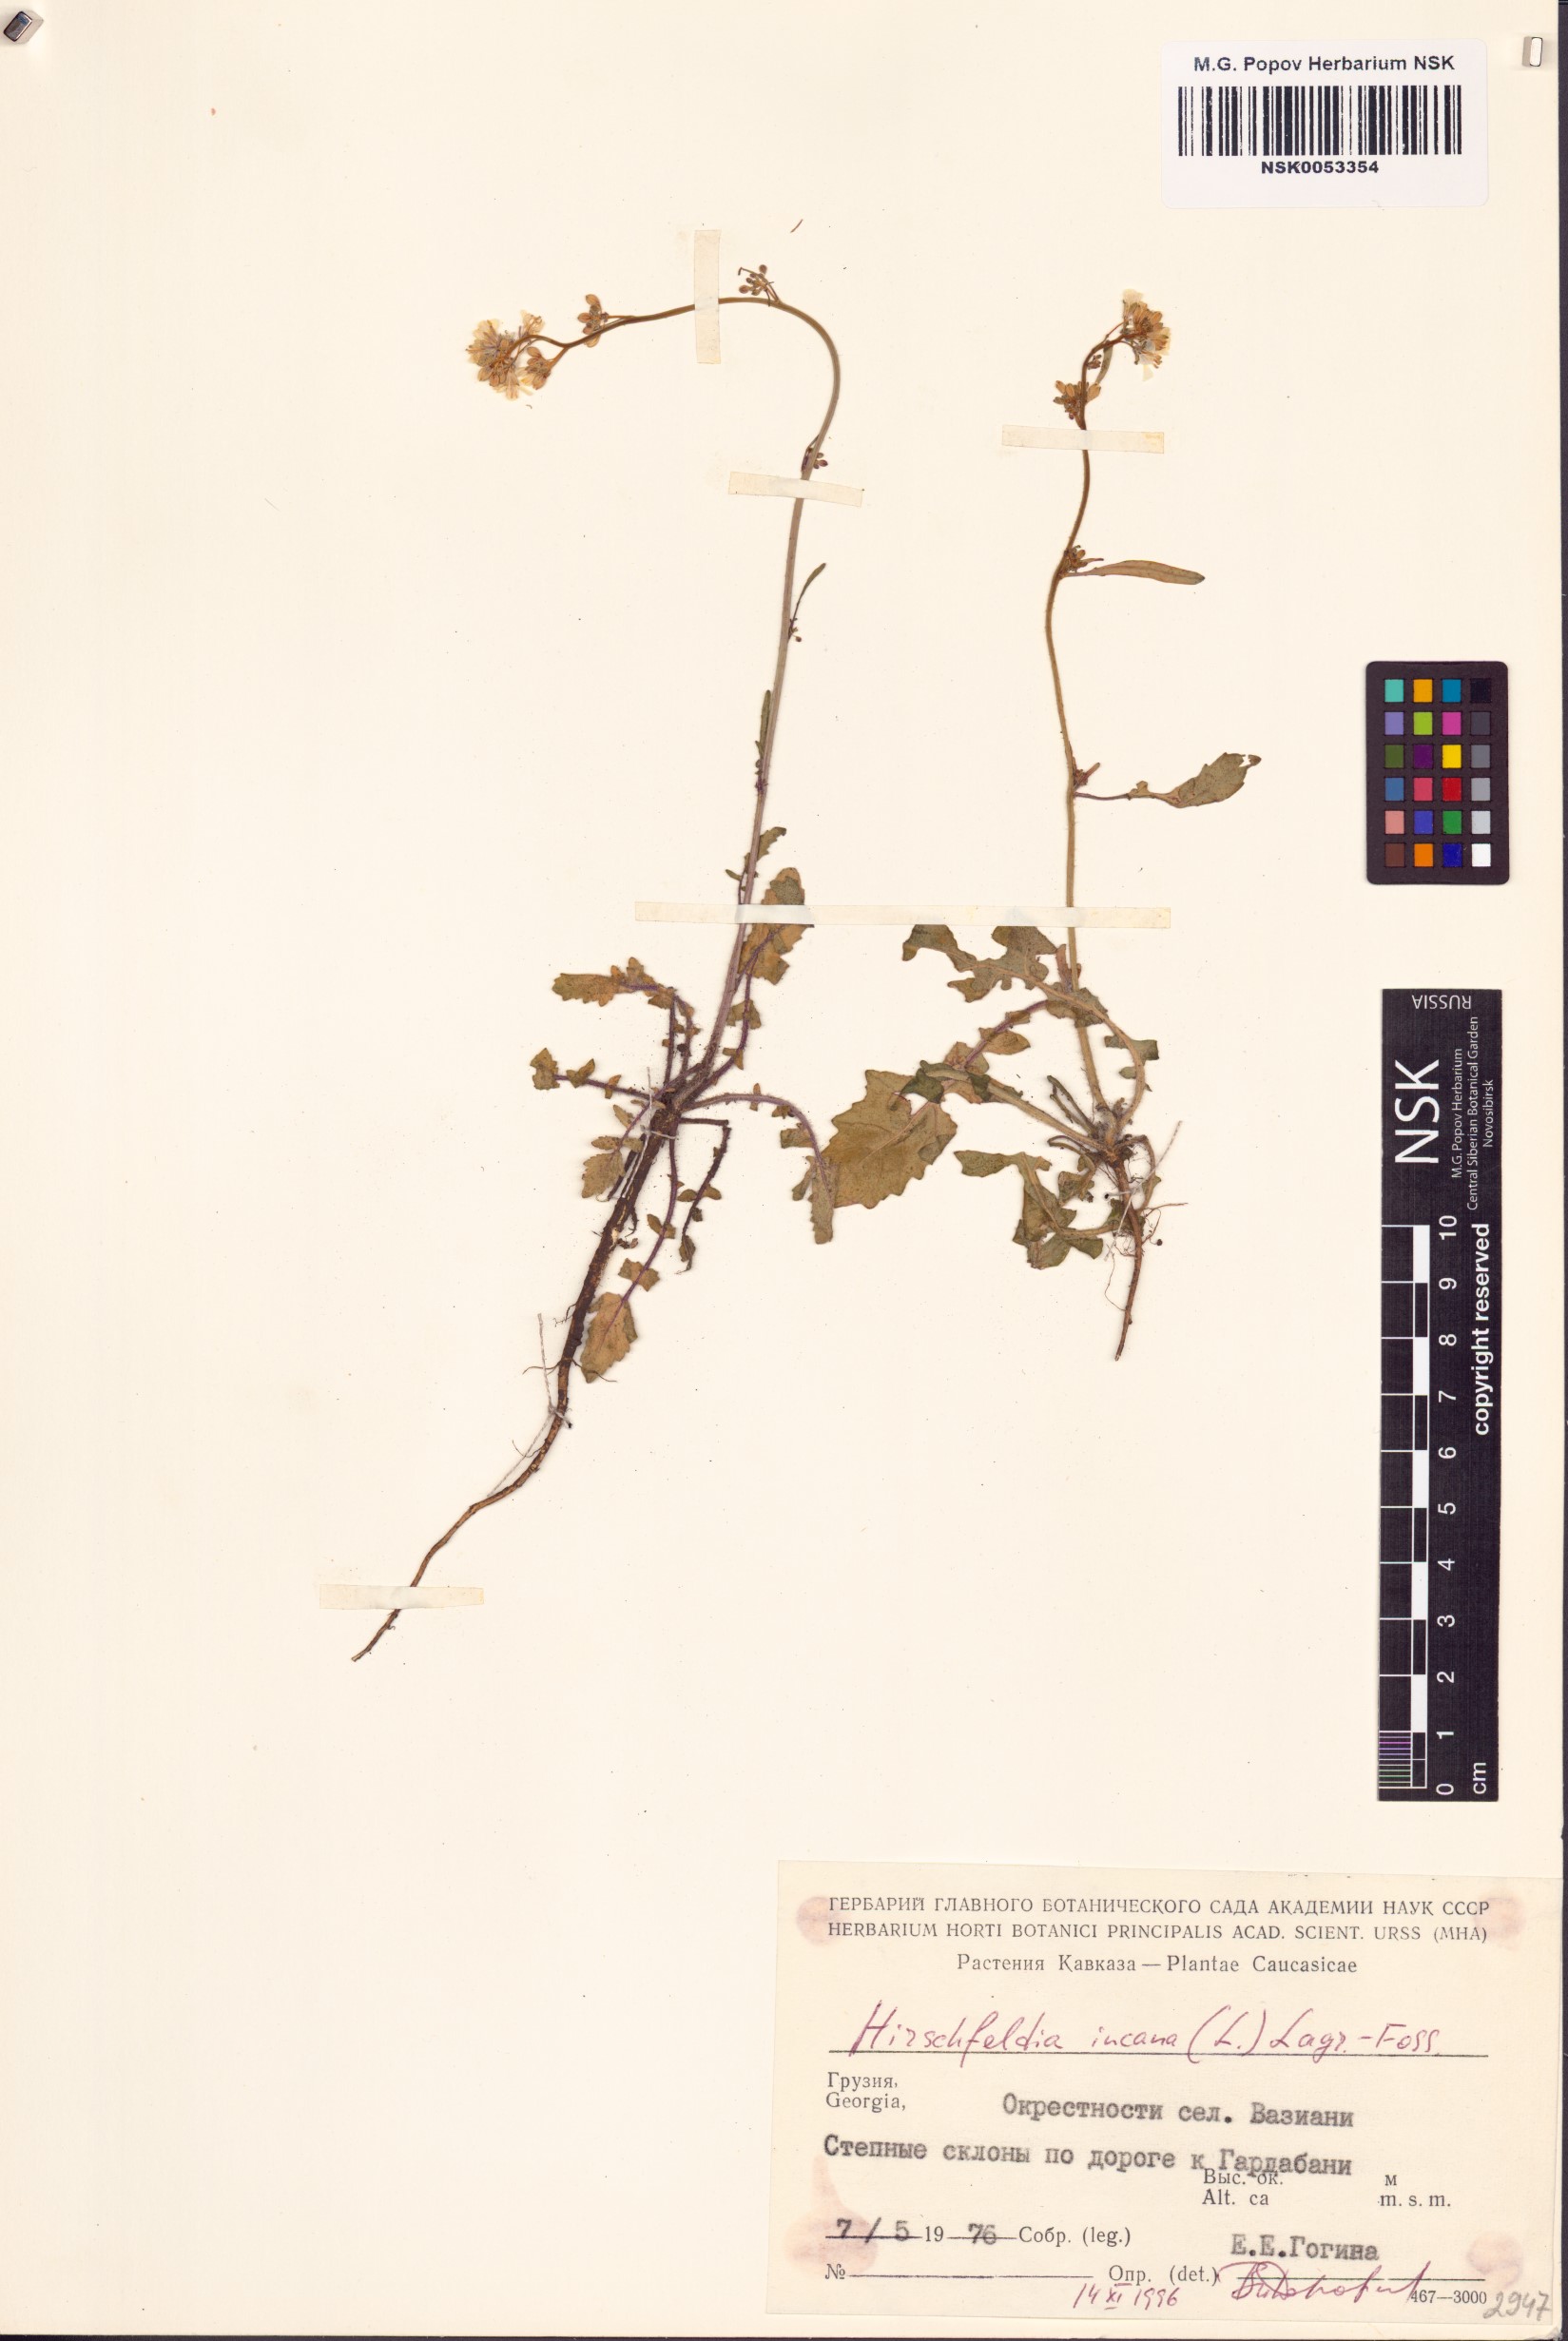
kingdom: Plantae
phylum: Tracheophyta
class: Magnoliopsida
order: Brassicales
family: Brassicaceae
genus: Hirschfeldia
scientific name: Hirschfeldia incana
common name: Hoary mustard
